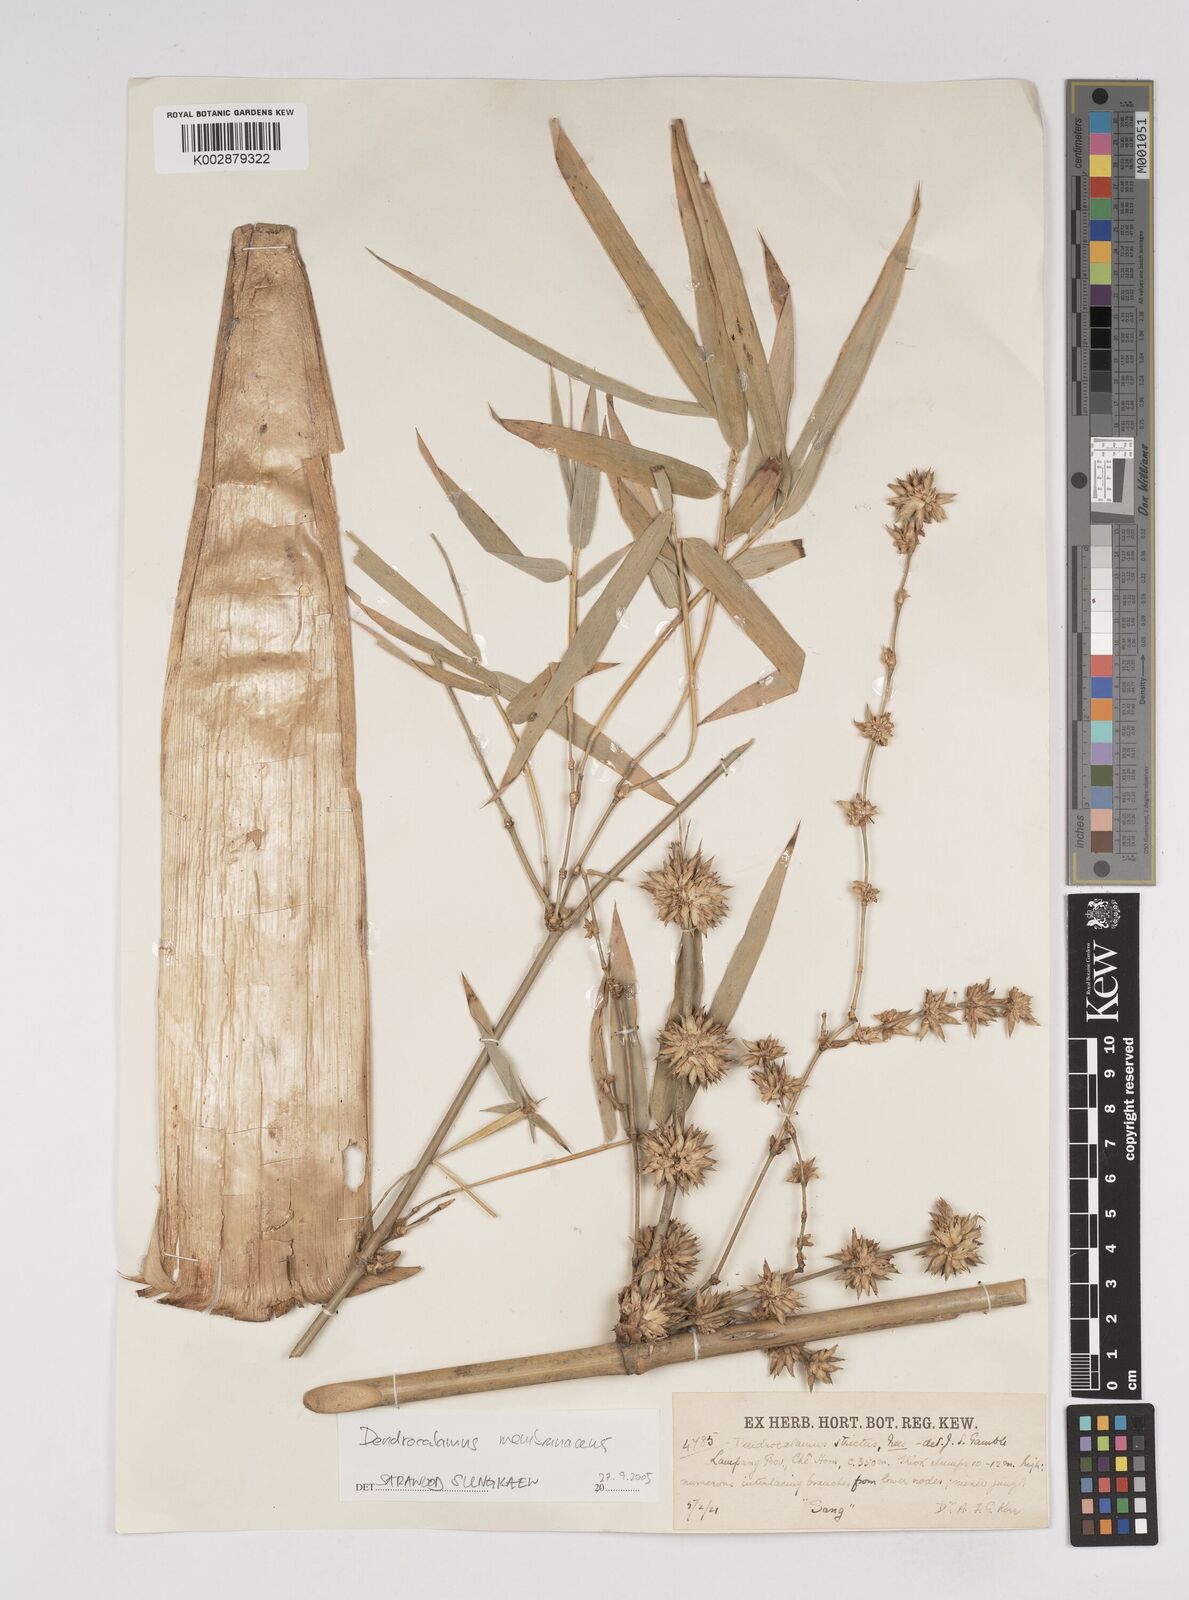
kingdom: Plantae
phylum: Tracheophyta
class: Liliopsida
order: Poales
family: Poaceae
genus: Dendrocalamus
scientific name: Dendrocalamus membranaceus
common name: White bamboo
